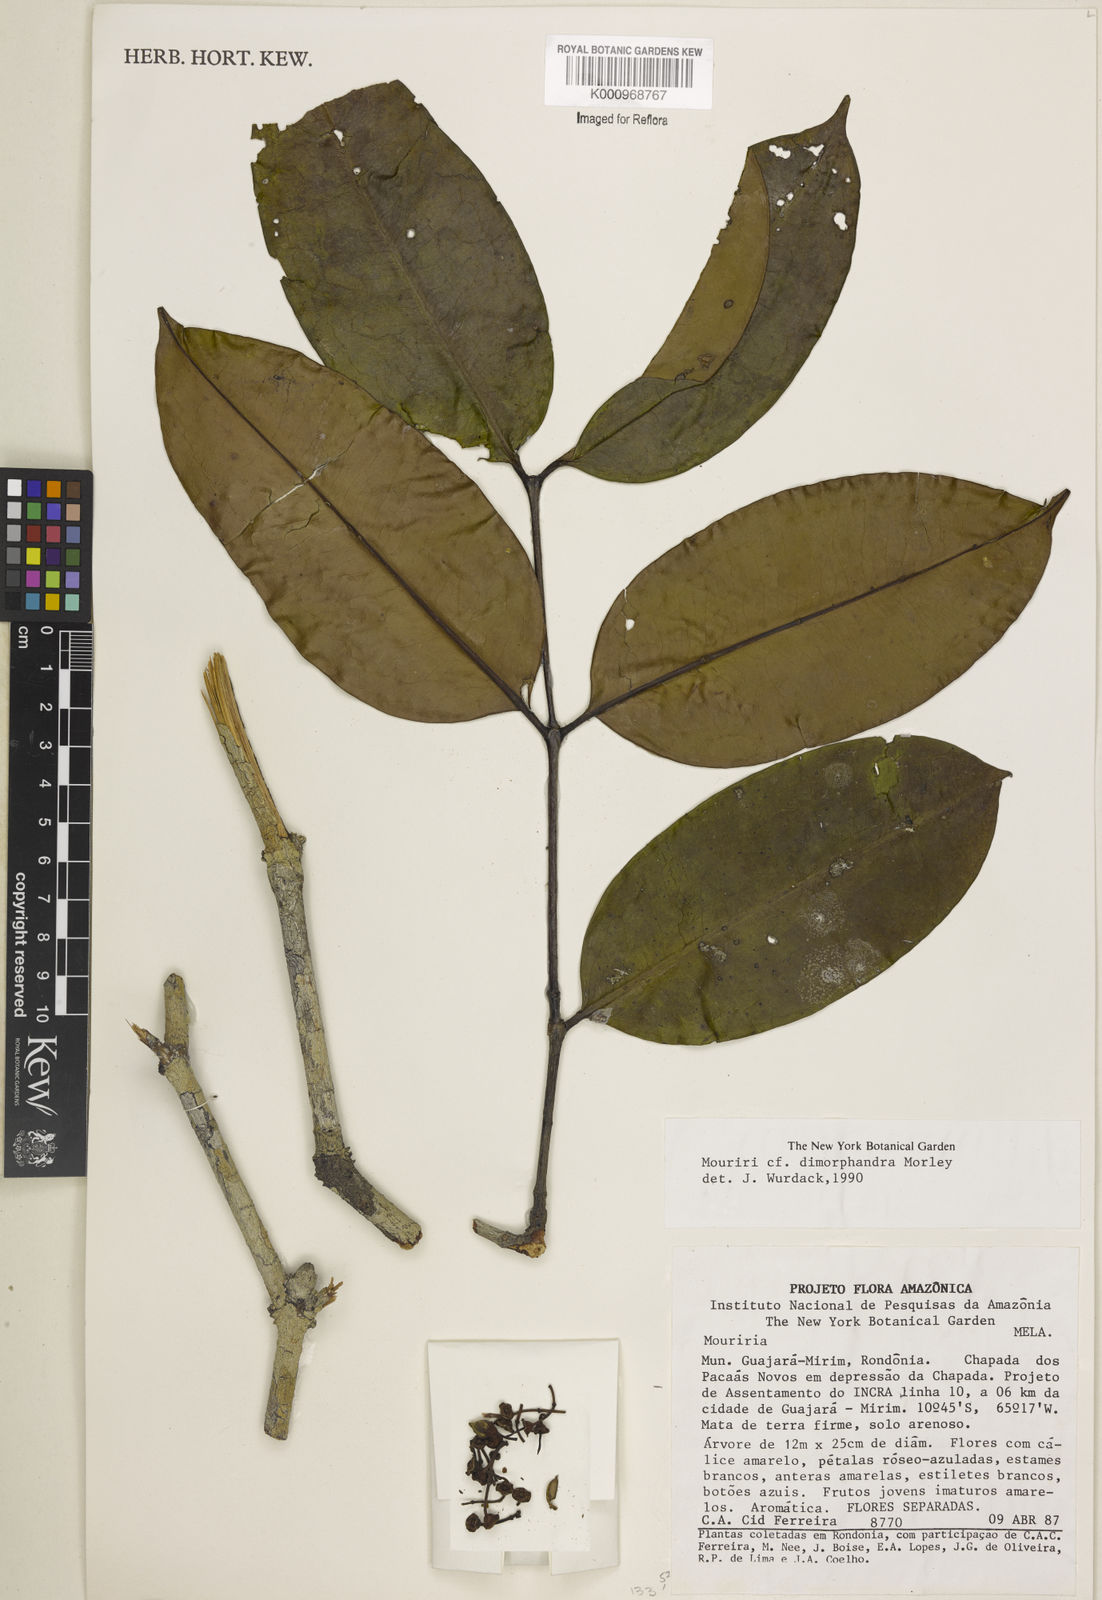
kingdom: Plantae
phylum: Tracheophyta
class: Magnoliopsida
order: Myrtales
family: Melastomataceae
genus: Mouriri
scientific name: Mouriri dimorphandra
